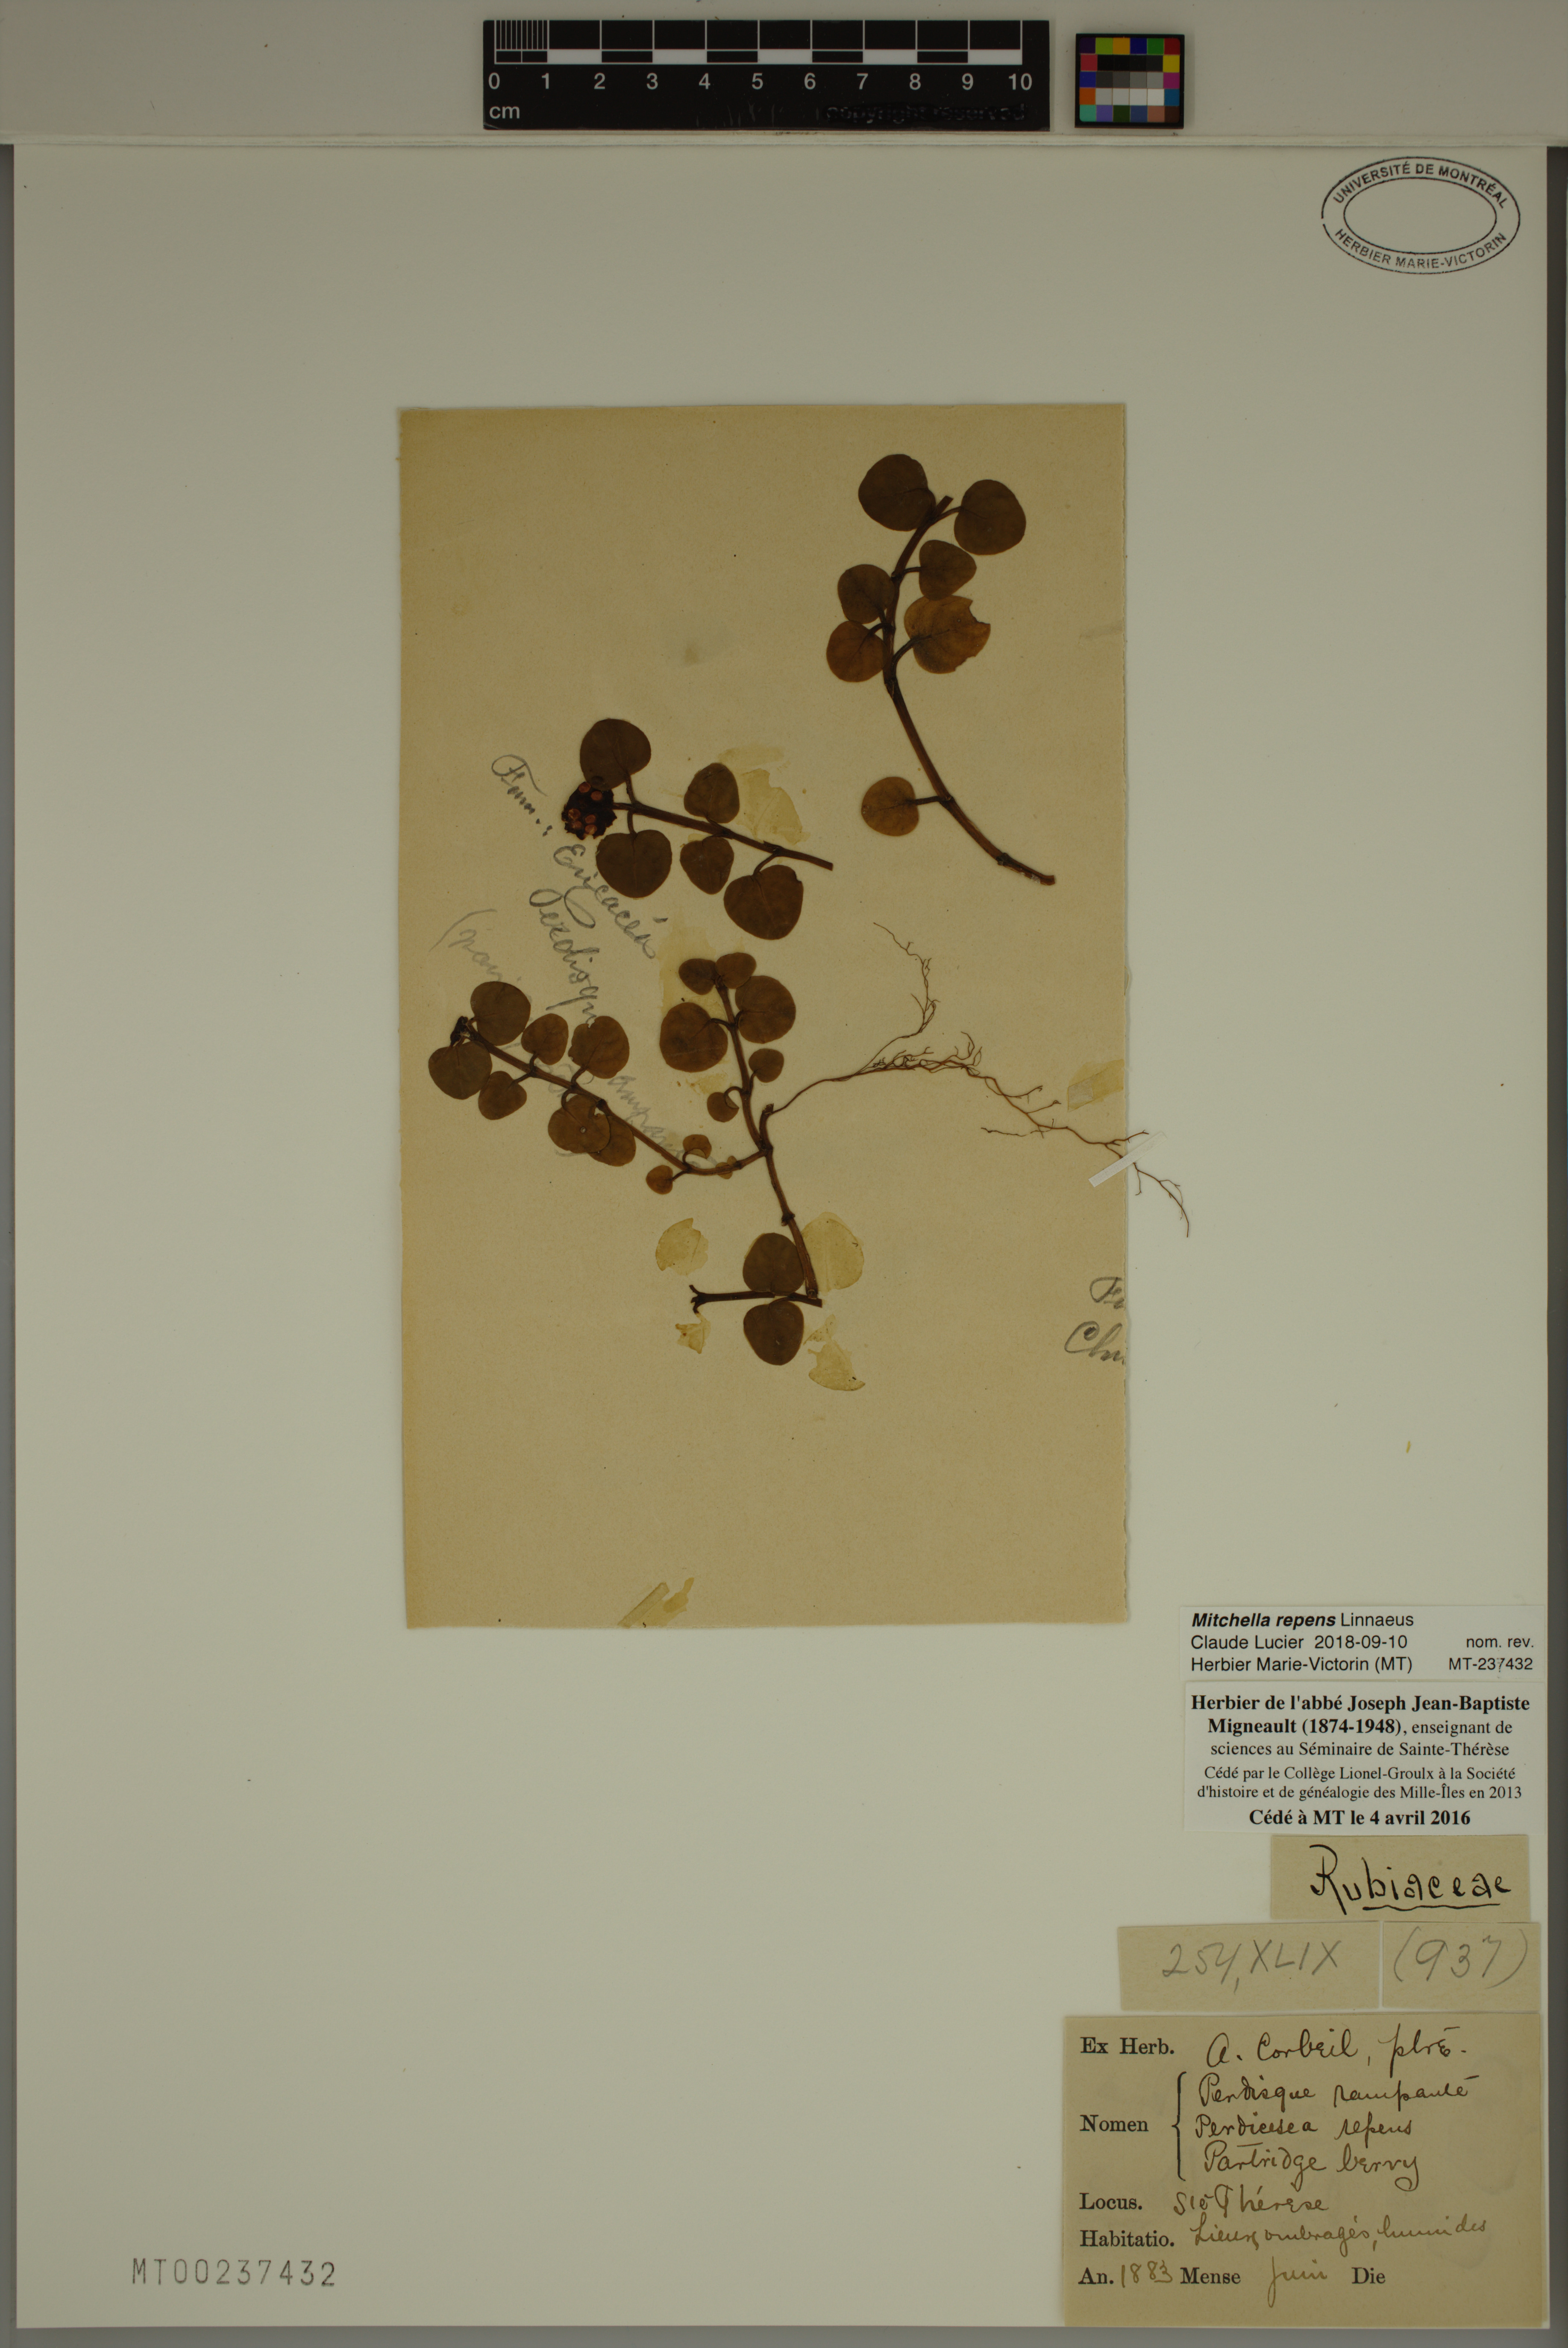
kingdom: Plantae
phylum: Tracheophyta
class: Magnoliopsida
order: Gentianales
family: Rubiaceae
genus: Mitchella
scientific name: Mitchella repens
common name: Partridge-berry
